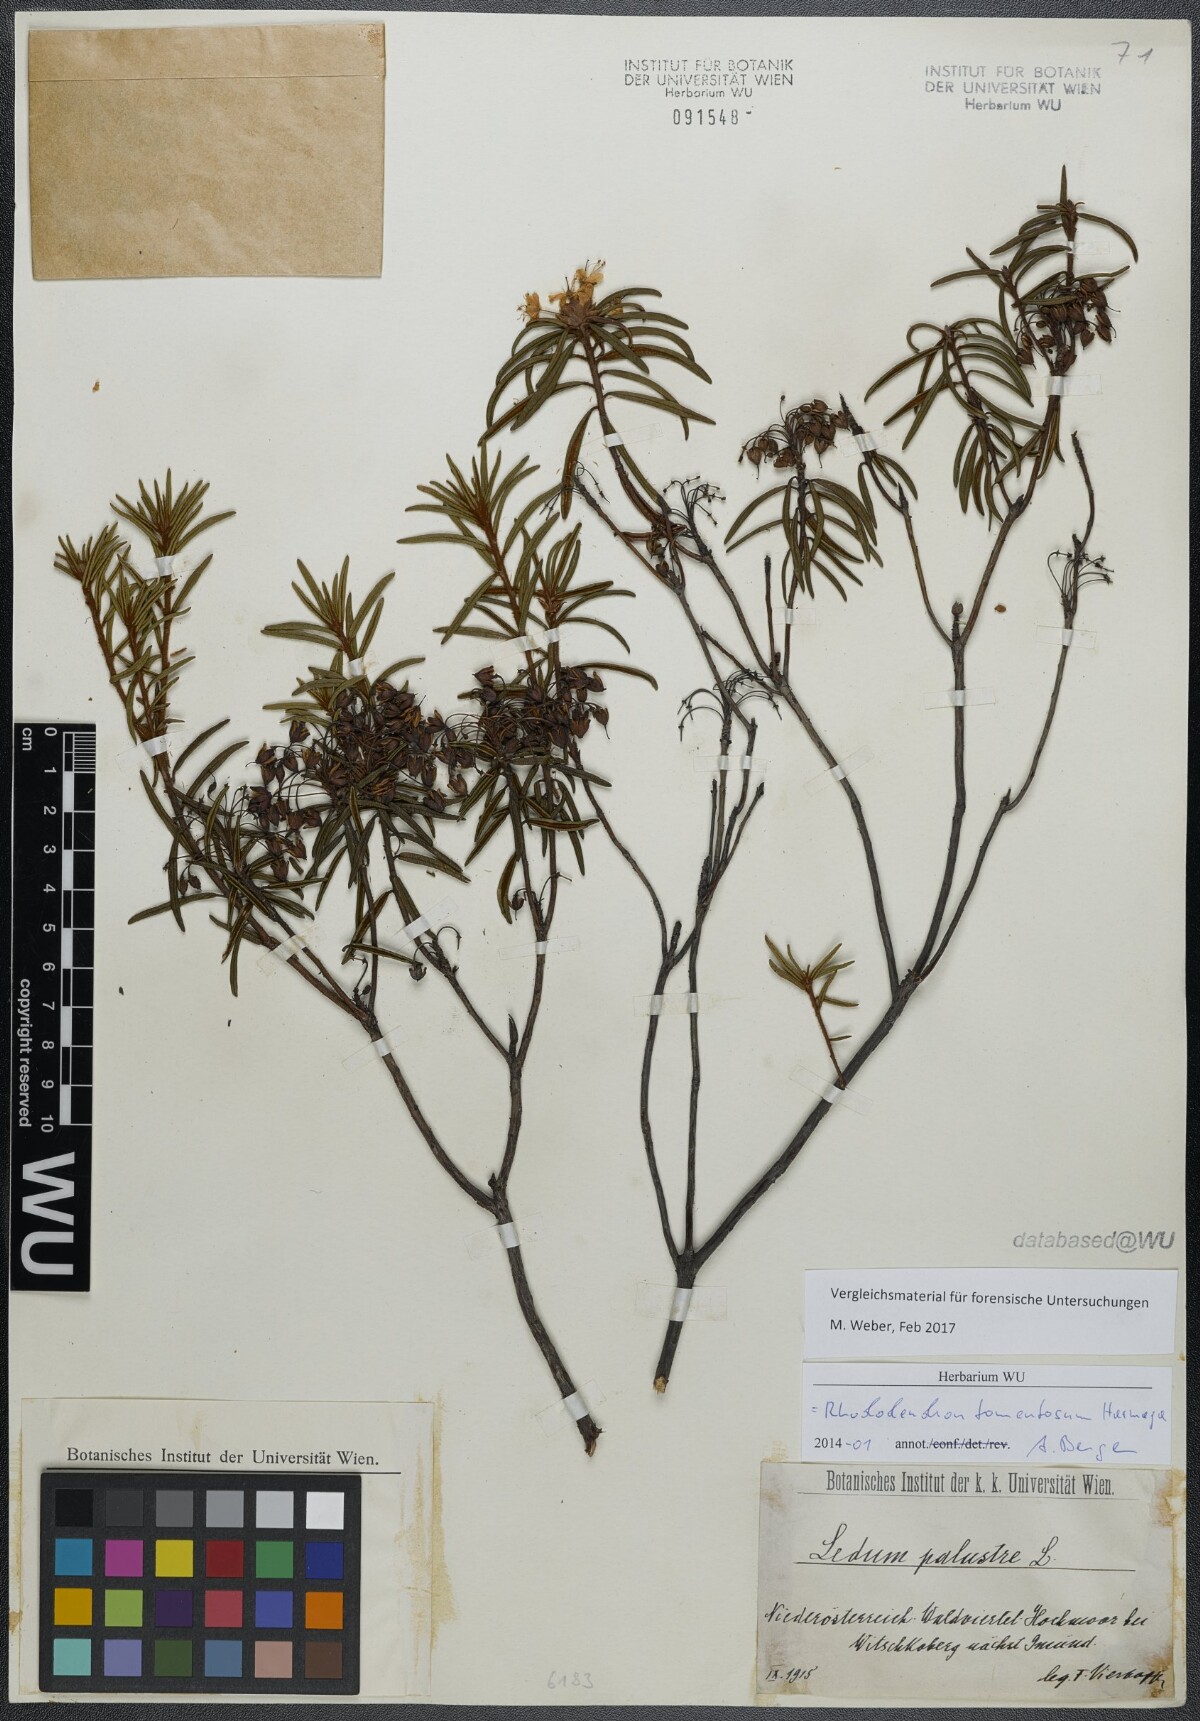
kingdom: Plantae
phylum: Tracheophyta
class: Magnoliopsida
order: Ericales
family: Ericaceae
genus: Rhododendron
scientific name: Rhododendron tomentosum
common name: Marsh labrador tea
